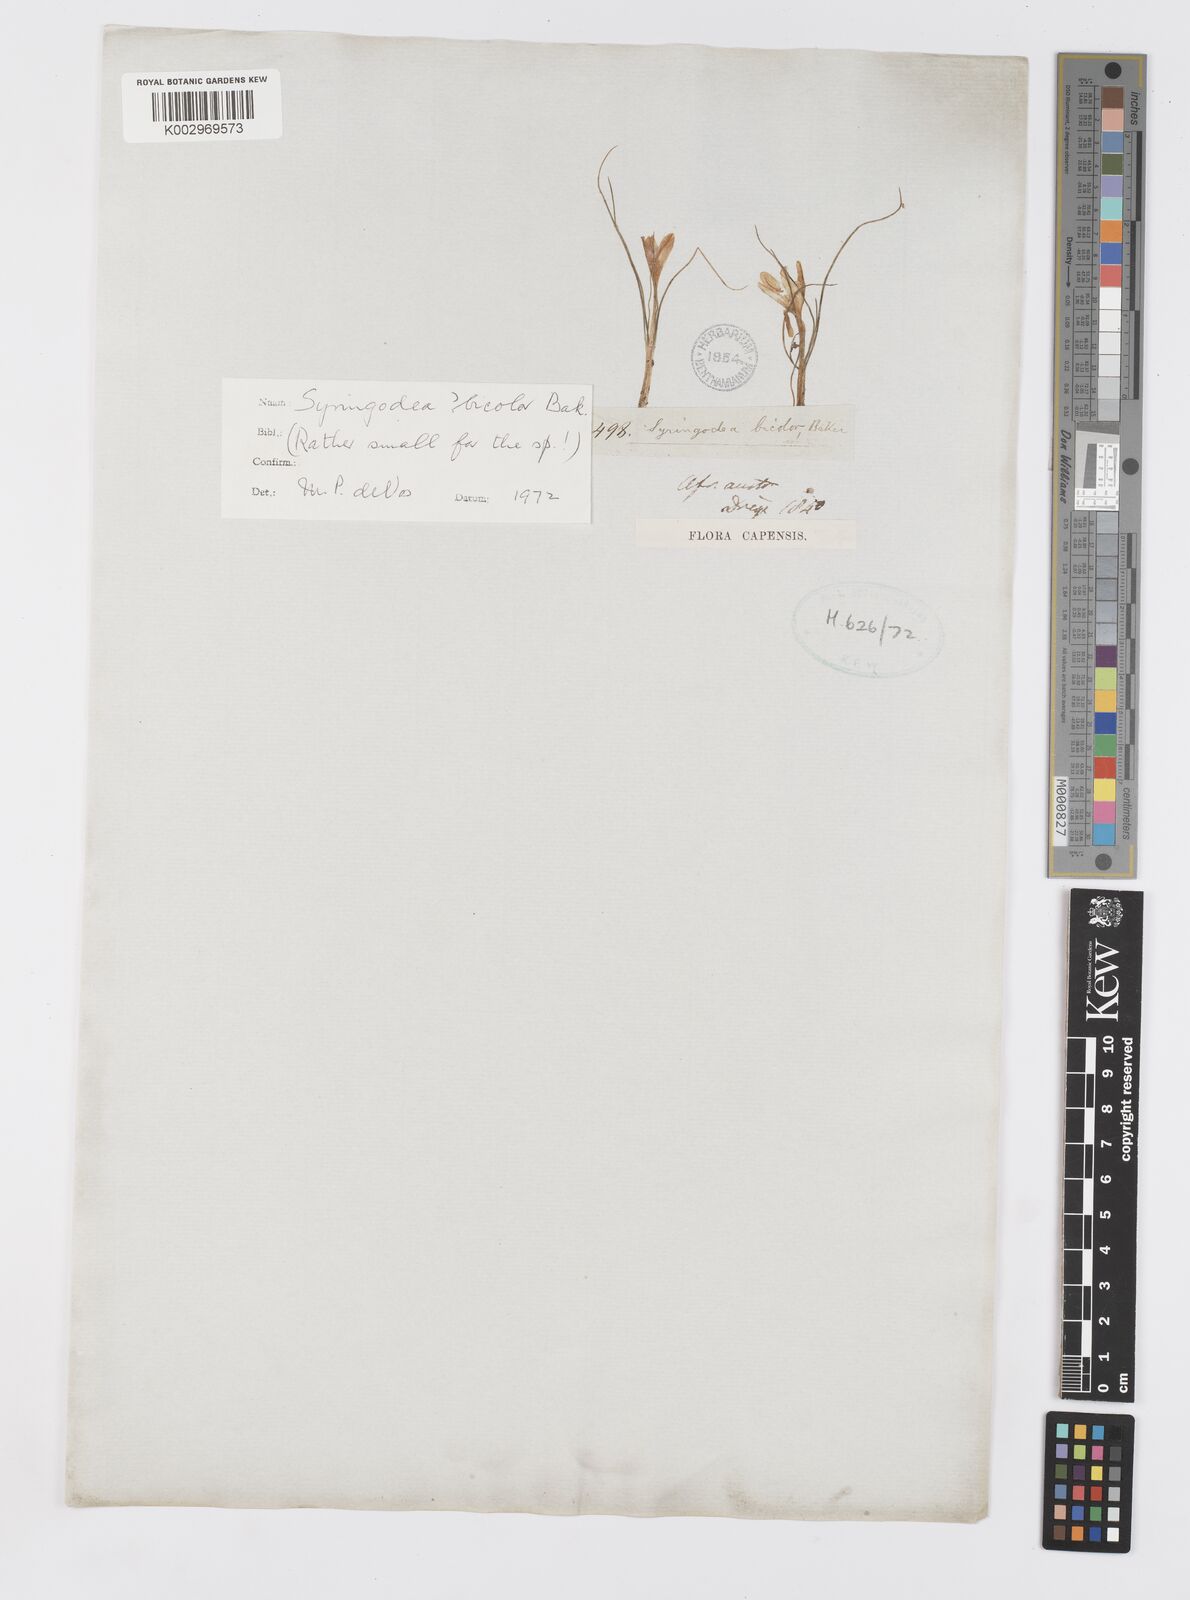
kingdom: Plantae
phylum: Tracheophyta
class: Liliopsida
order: Asparagales
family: Iridaceae
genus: Syringodea
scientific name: Syringodea bifucata
